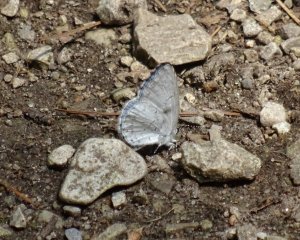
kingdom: Animalia
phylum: Arthropoda
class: Insecta
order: Lepidoptera
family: Lycaenidae
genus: Cyaniris
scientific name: Cyaniris neglecta
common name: Summer Azure
